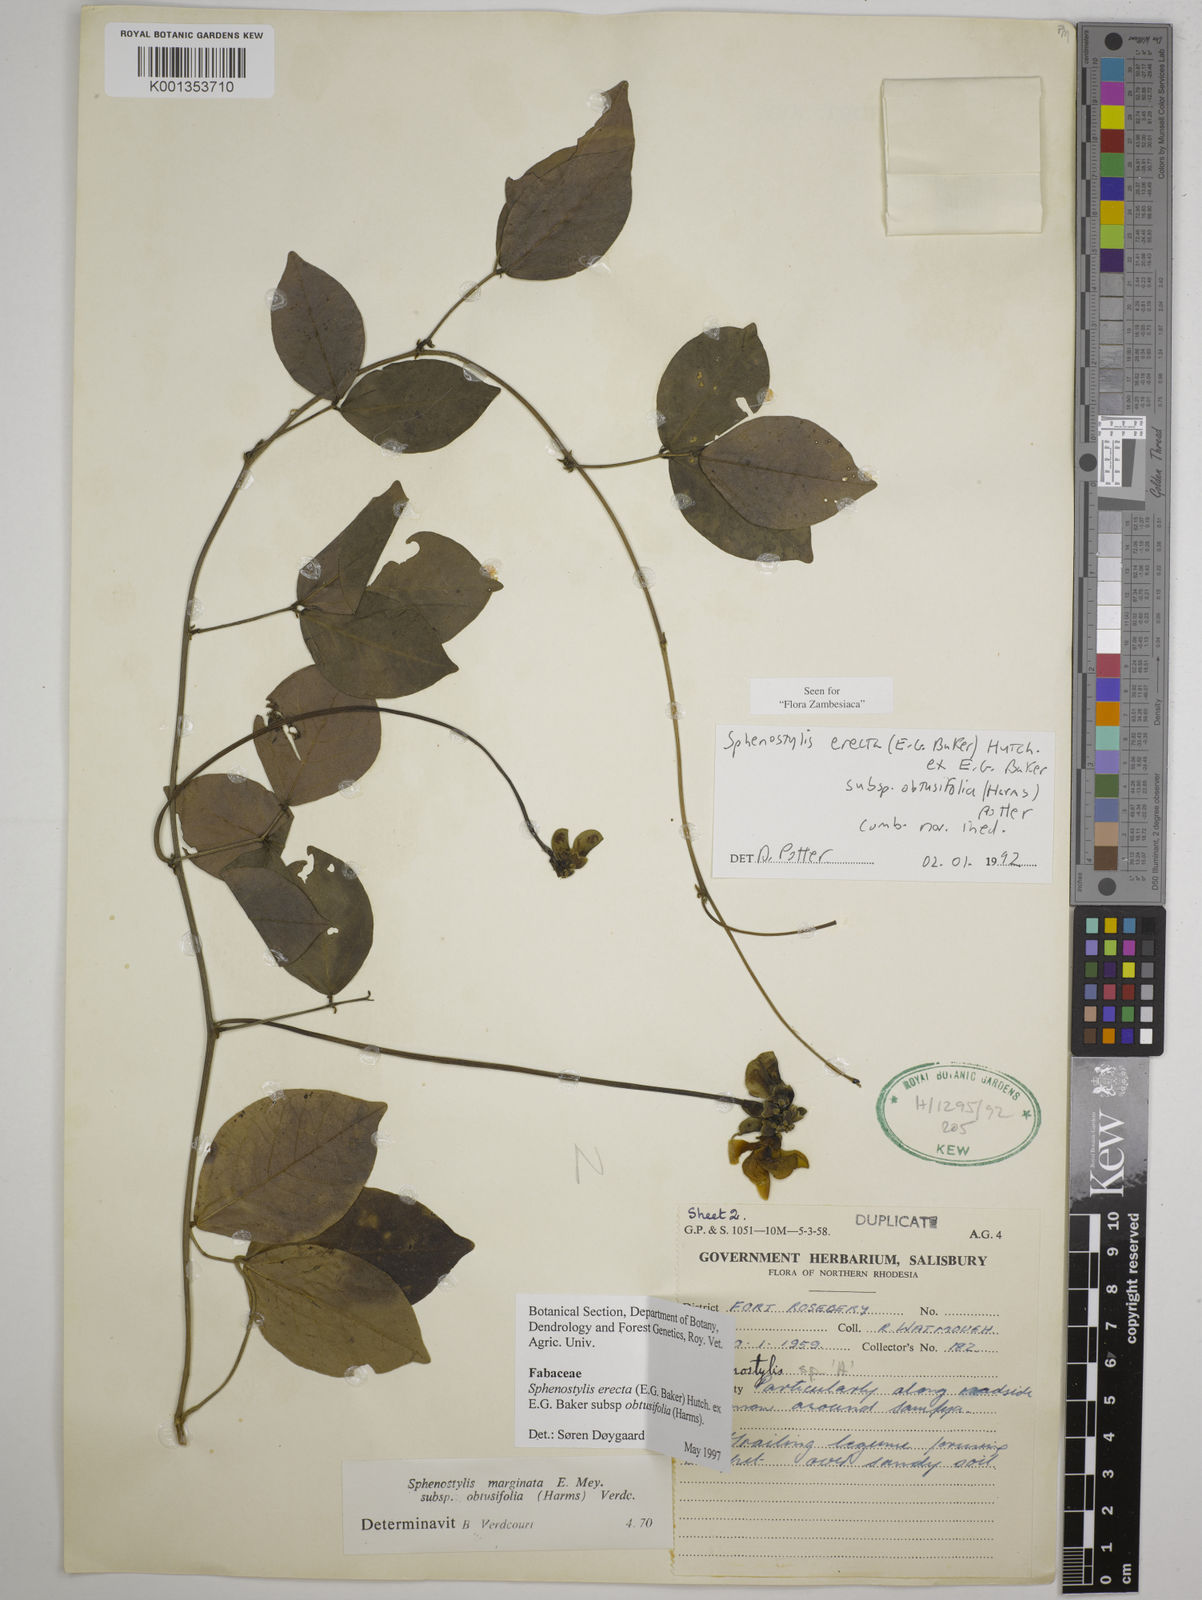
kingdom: Plantae
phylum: Tracheophyta
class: Magnoliopsida
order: Fabales
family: Fabaceae
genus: Sphenostylis
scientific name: Sphenostylis
